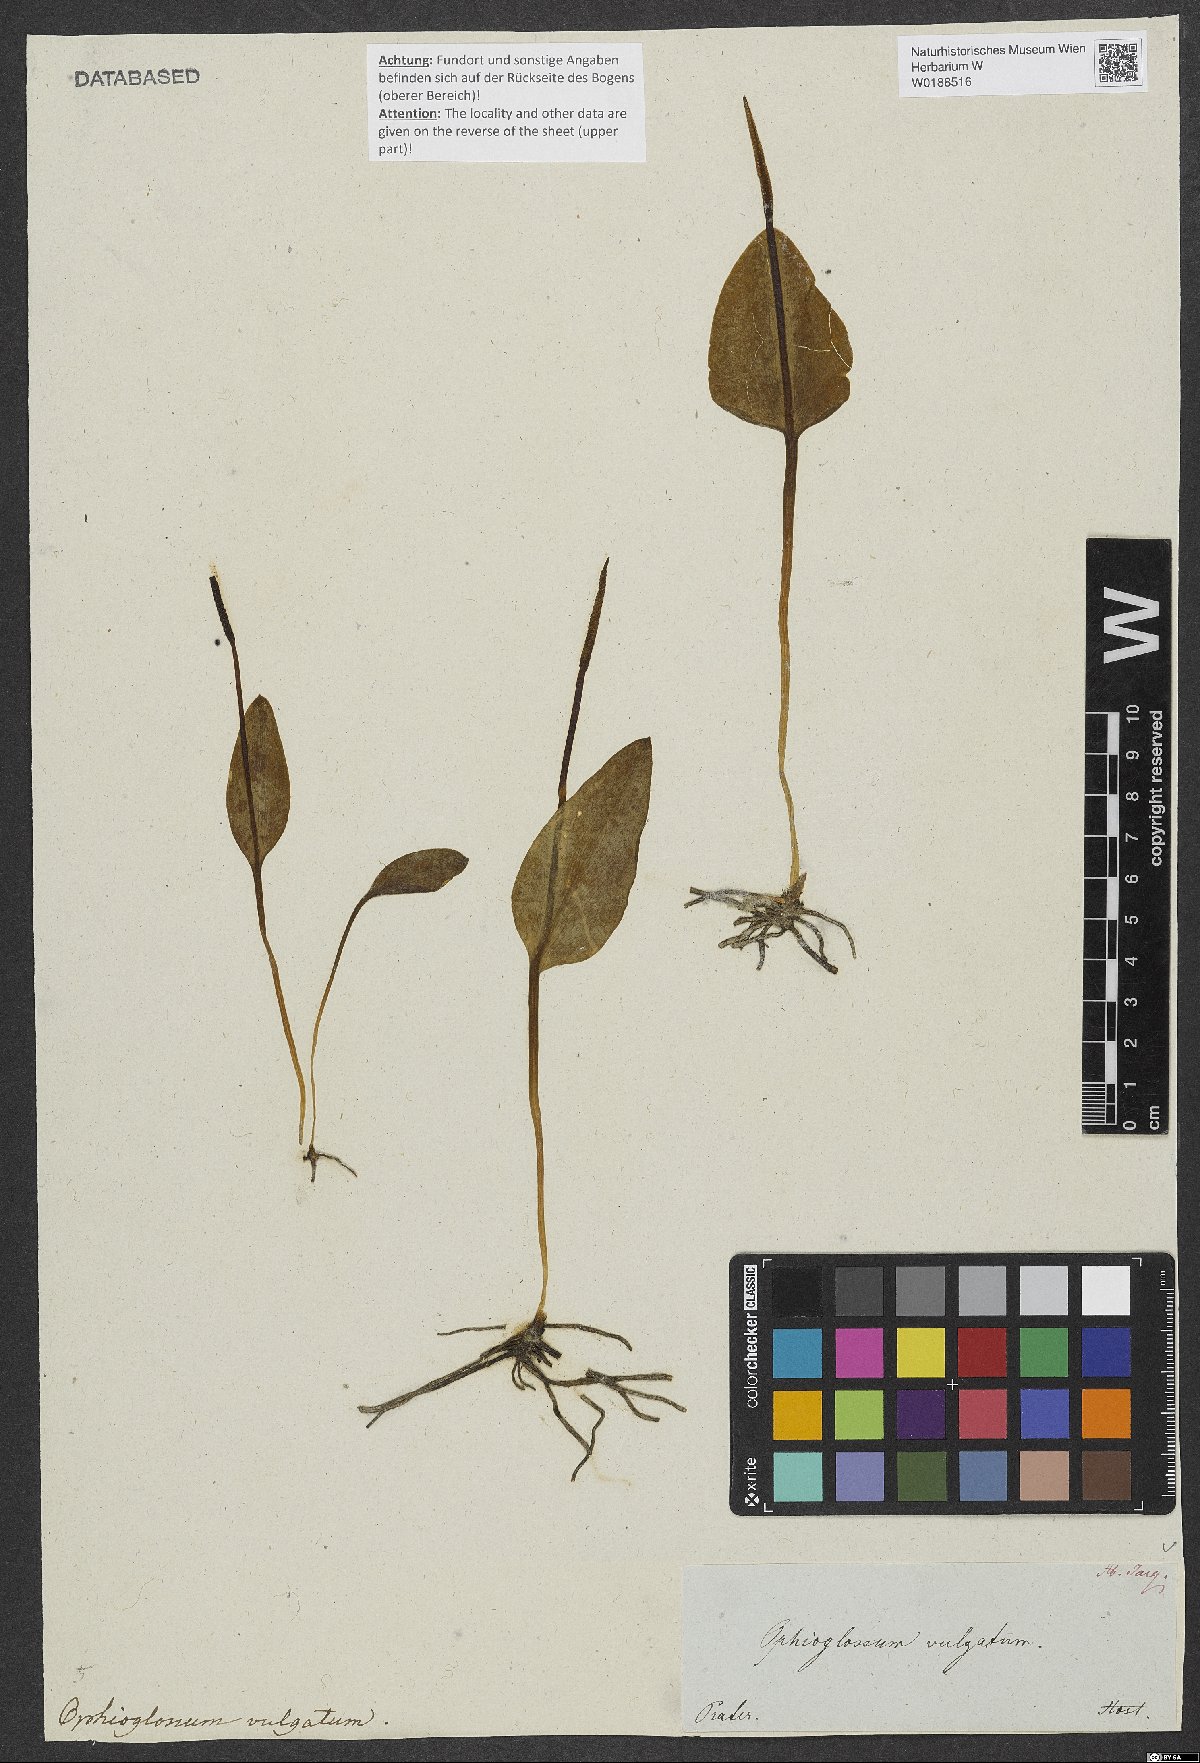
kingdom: Plantae
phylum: Tracheophyta
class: Polypodiopsida
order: Ophioglossales
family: Ophioglossaceae
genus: Ophioglossum
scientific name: Ophioglossum vulgatum
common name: Adder's-tongue
